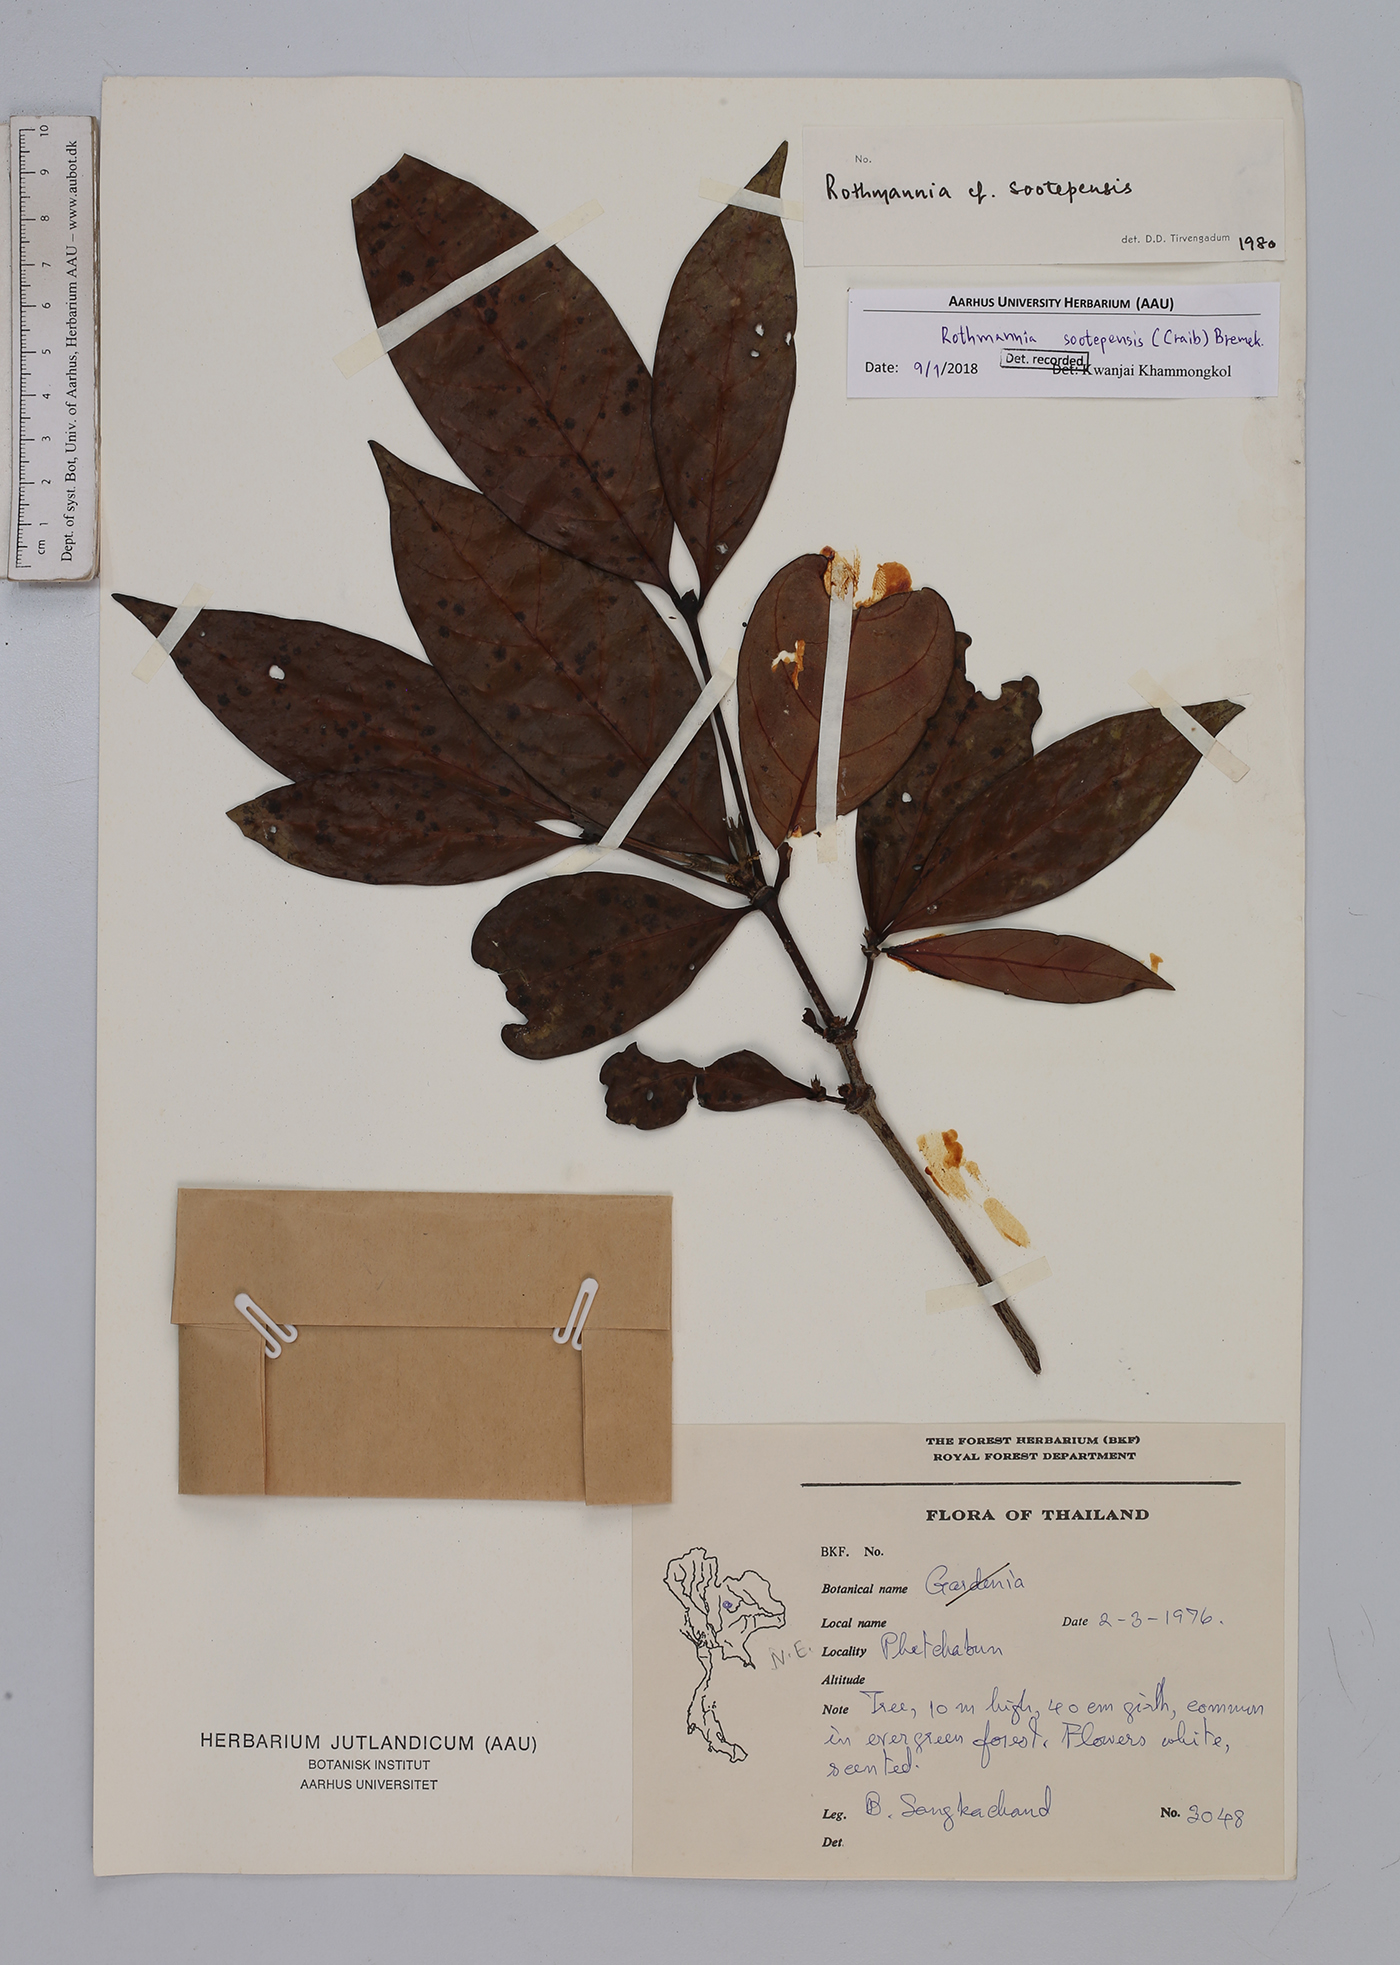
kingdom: Plantae
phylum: Tracheophyta
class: Magnoliopsida
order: Gentianales
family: Rubiaceae
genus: Ridsdalea
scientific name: Ridsdalea sootepensis
